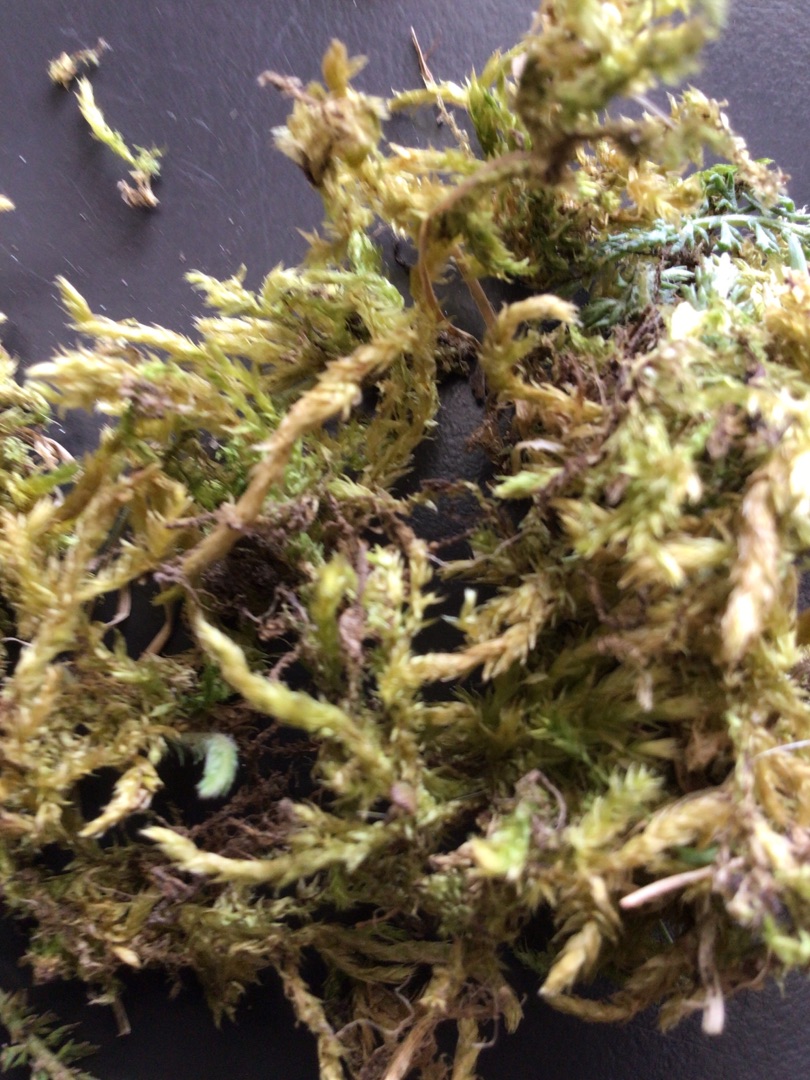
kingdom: Plantae
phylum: Bryophyta
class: Bryopsida
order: Hypnales
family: Brachytheciaceae
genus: Brachythecium
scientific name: Brachythecium rutabulum
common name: Almindelig kortkapsel
